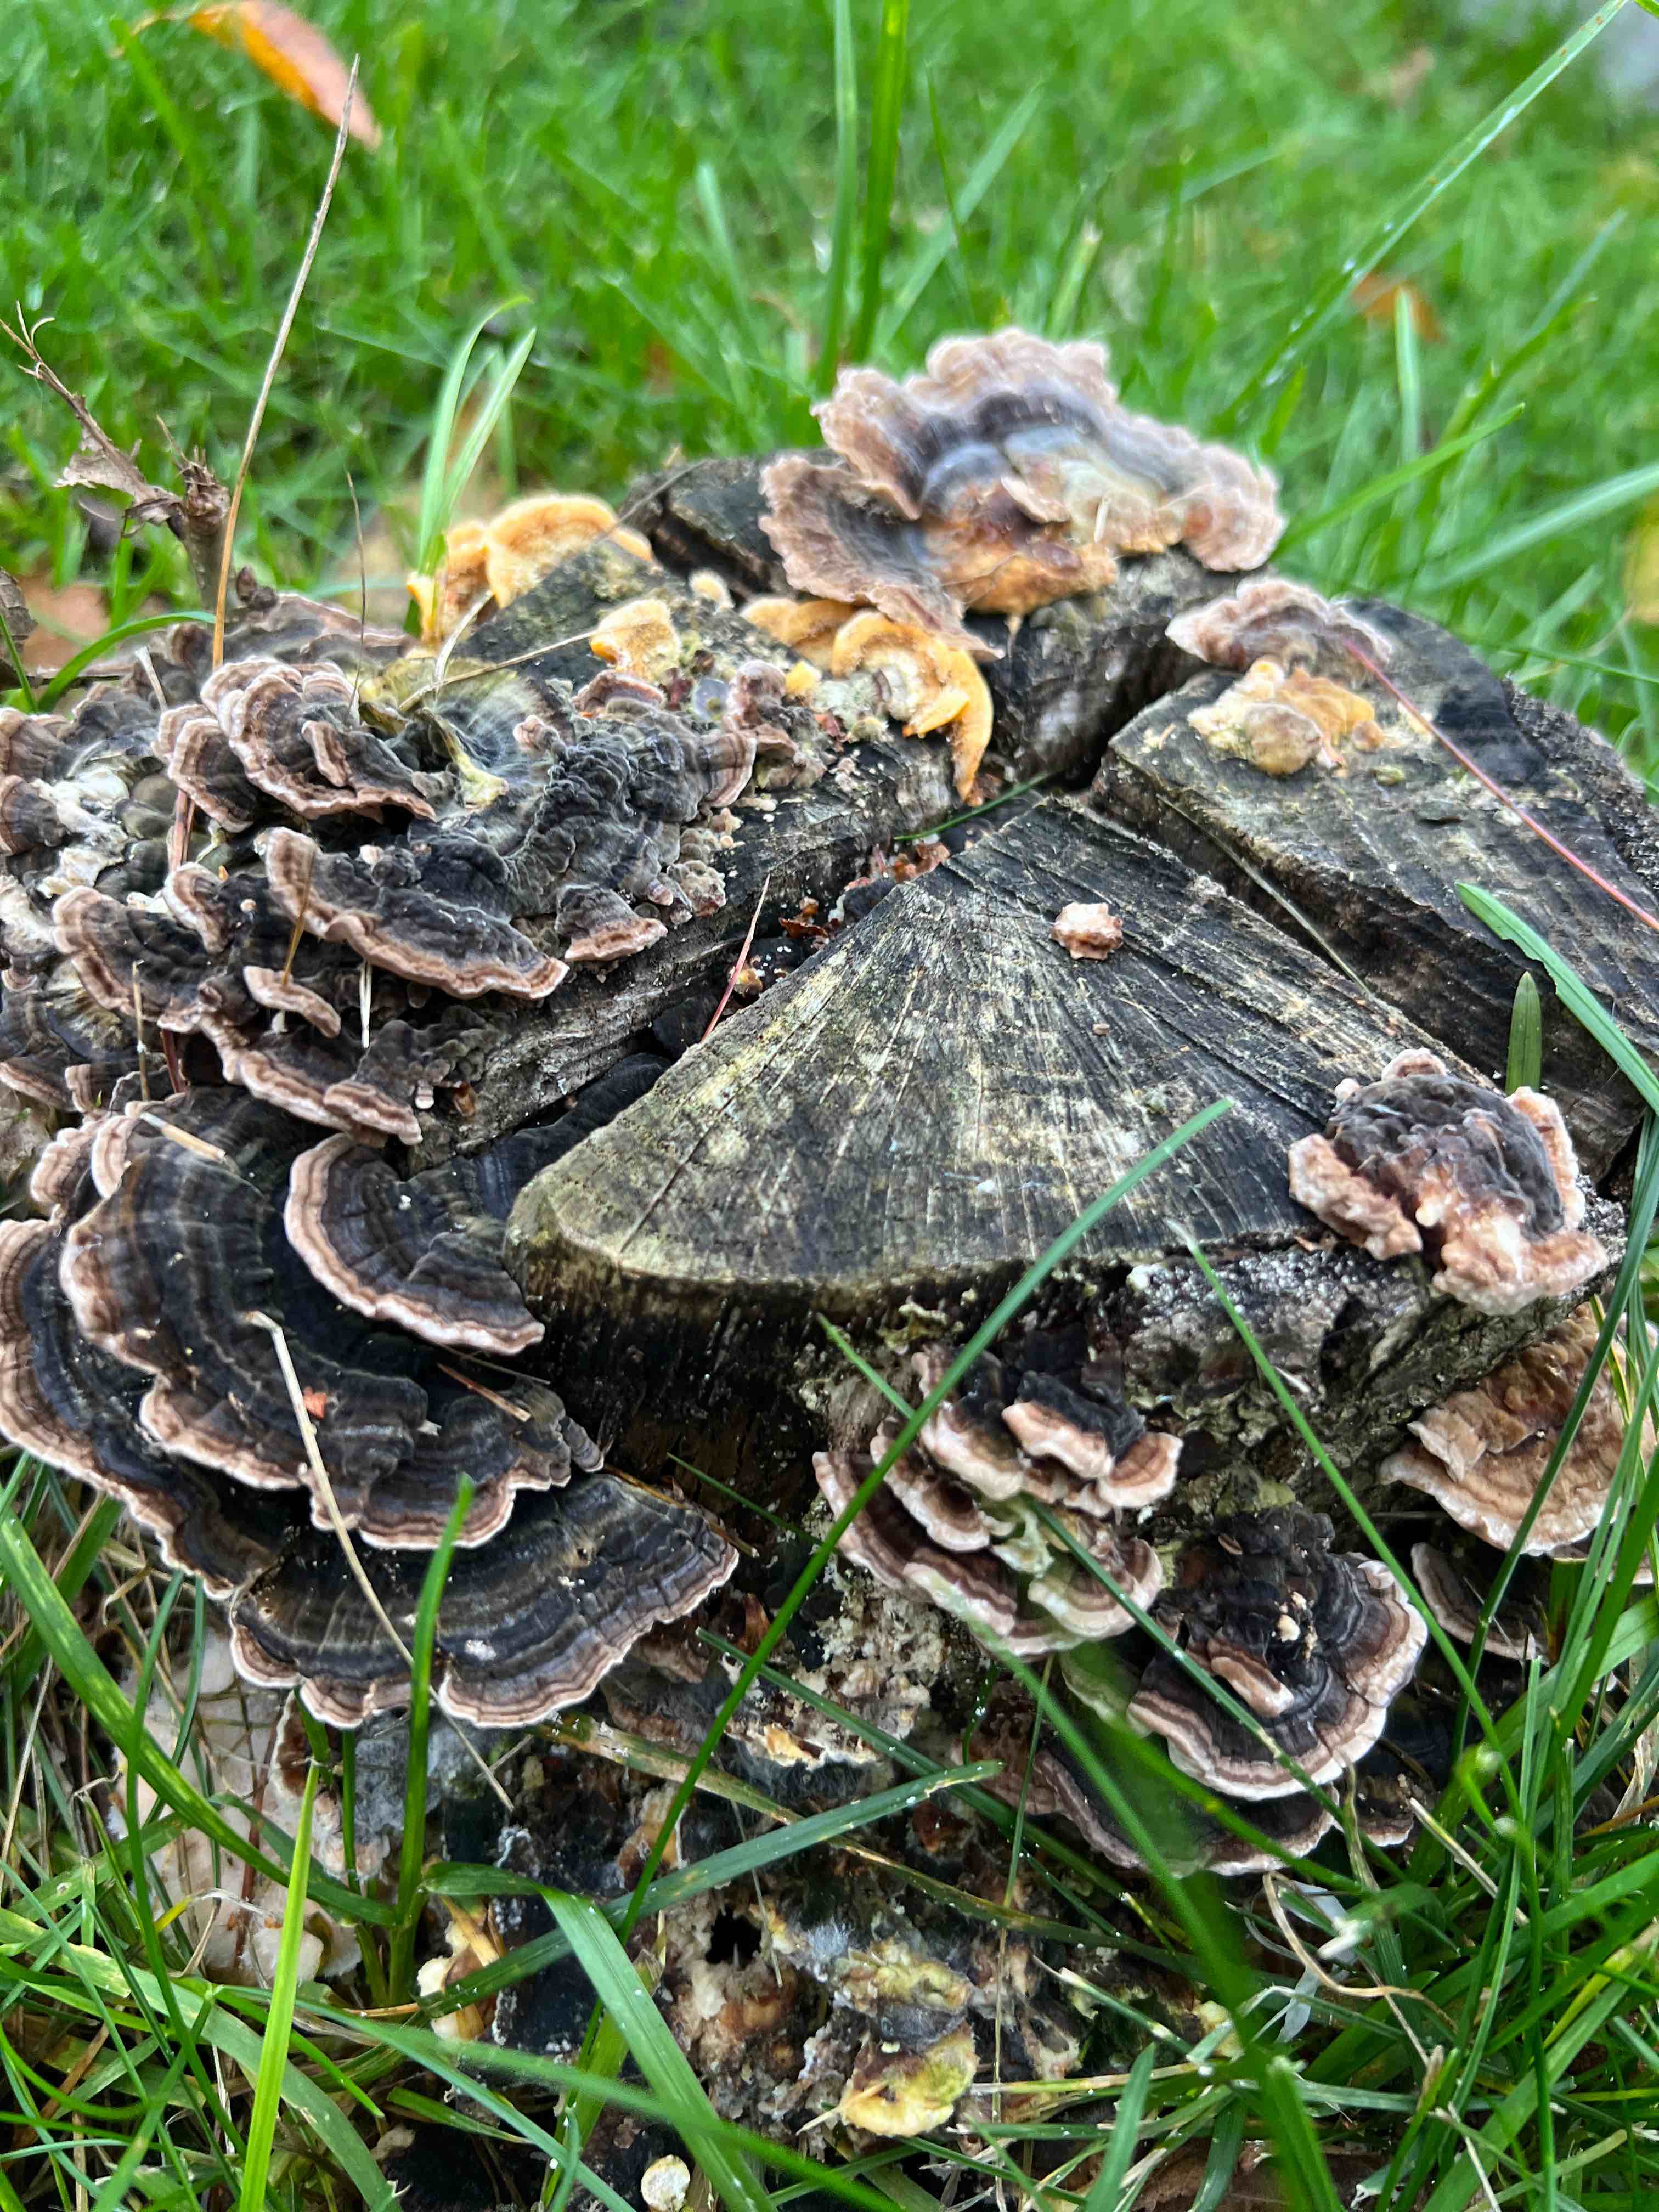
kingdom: Fungi
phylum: Basidiomycota
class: Agaricomycetes
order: Polyporales
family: Polyporaceae
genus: Trametes
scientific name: Trametes versicolor
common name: broget læderporesvamp
